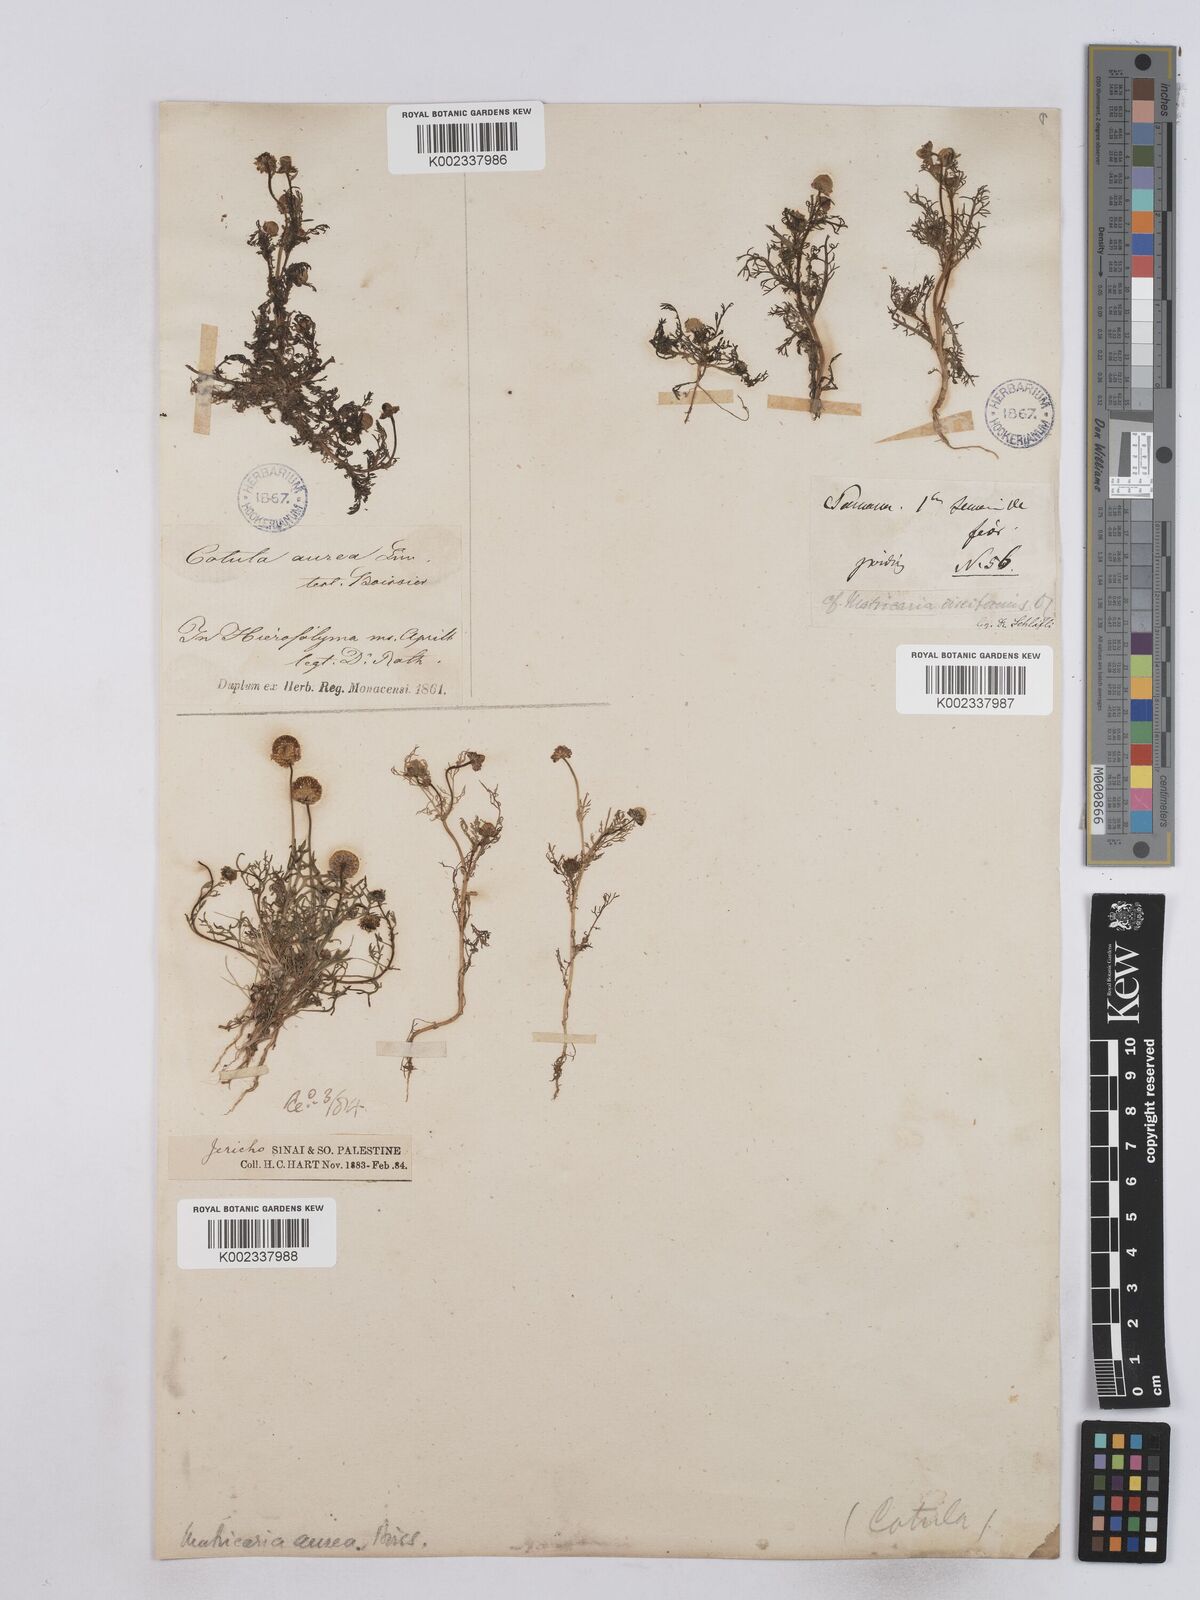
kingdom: Plantae
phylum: Tracheophyta
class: Magnoliopsida
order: Asterales
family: Asteraceae
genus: Matricaria
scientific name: Matricaria aurea
